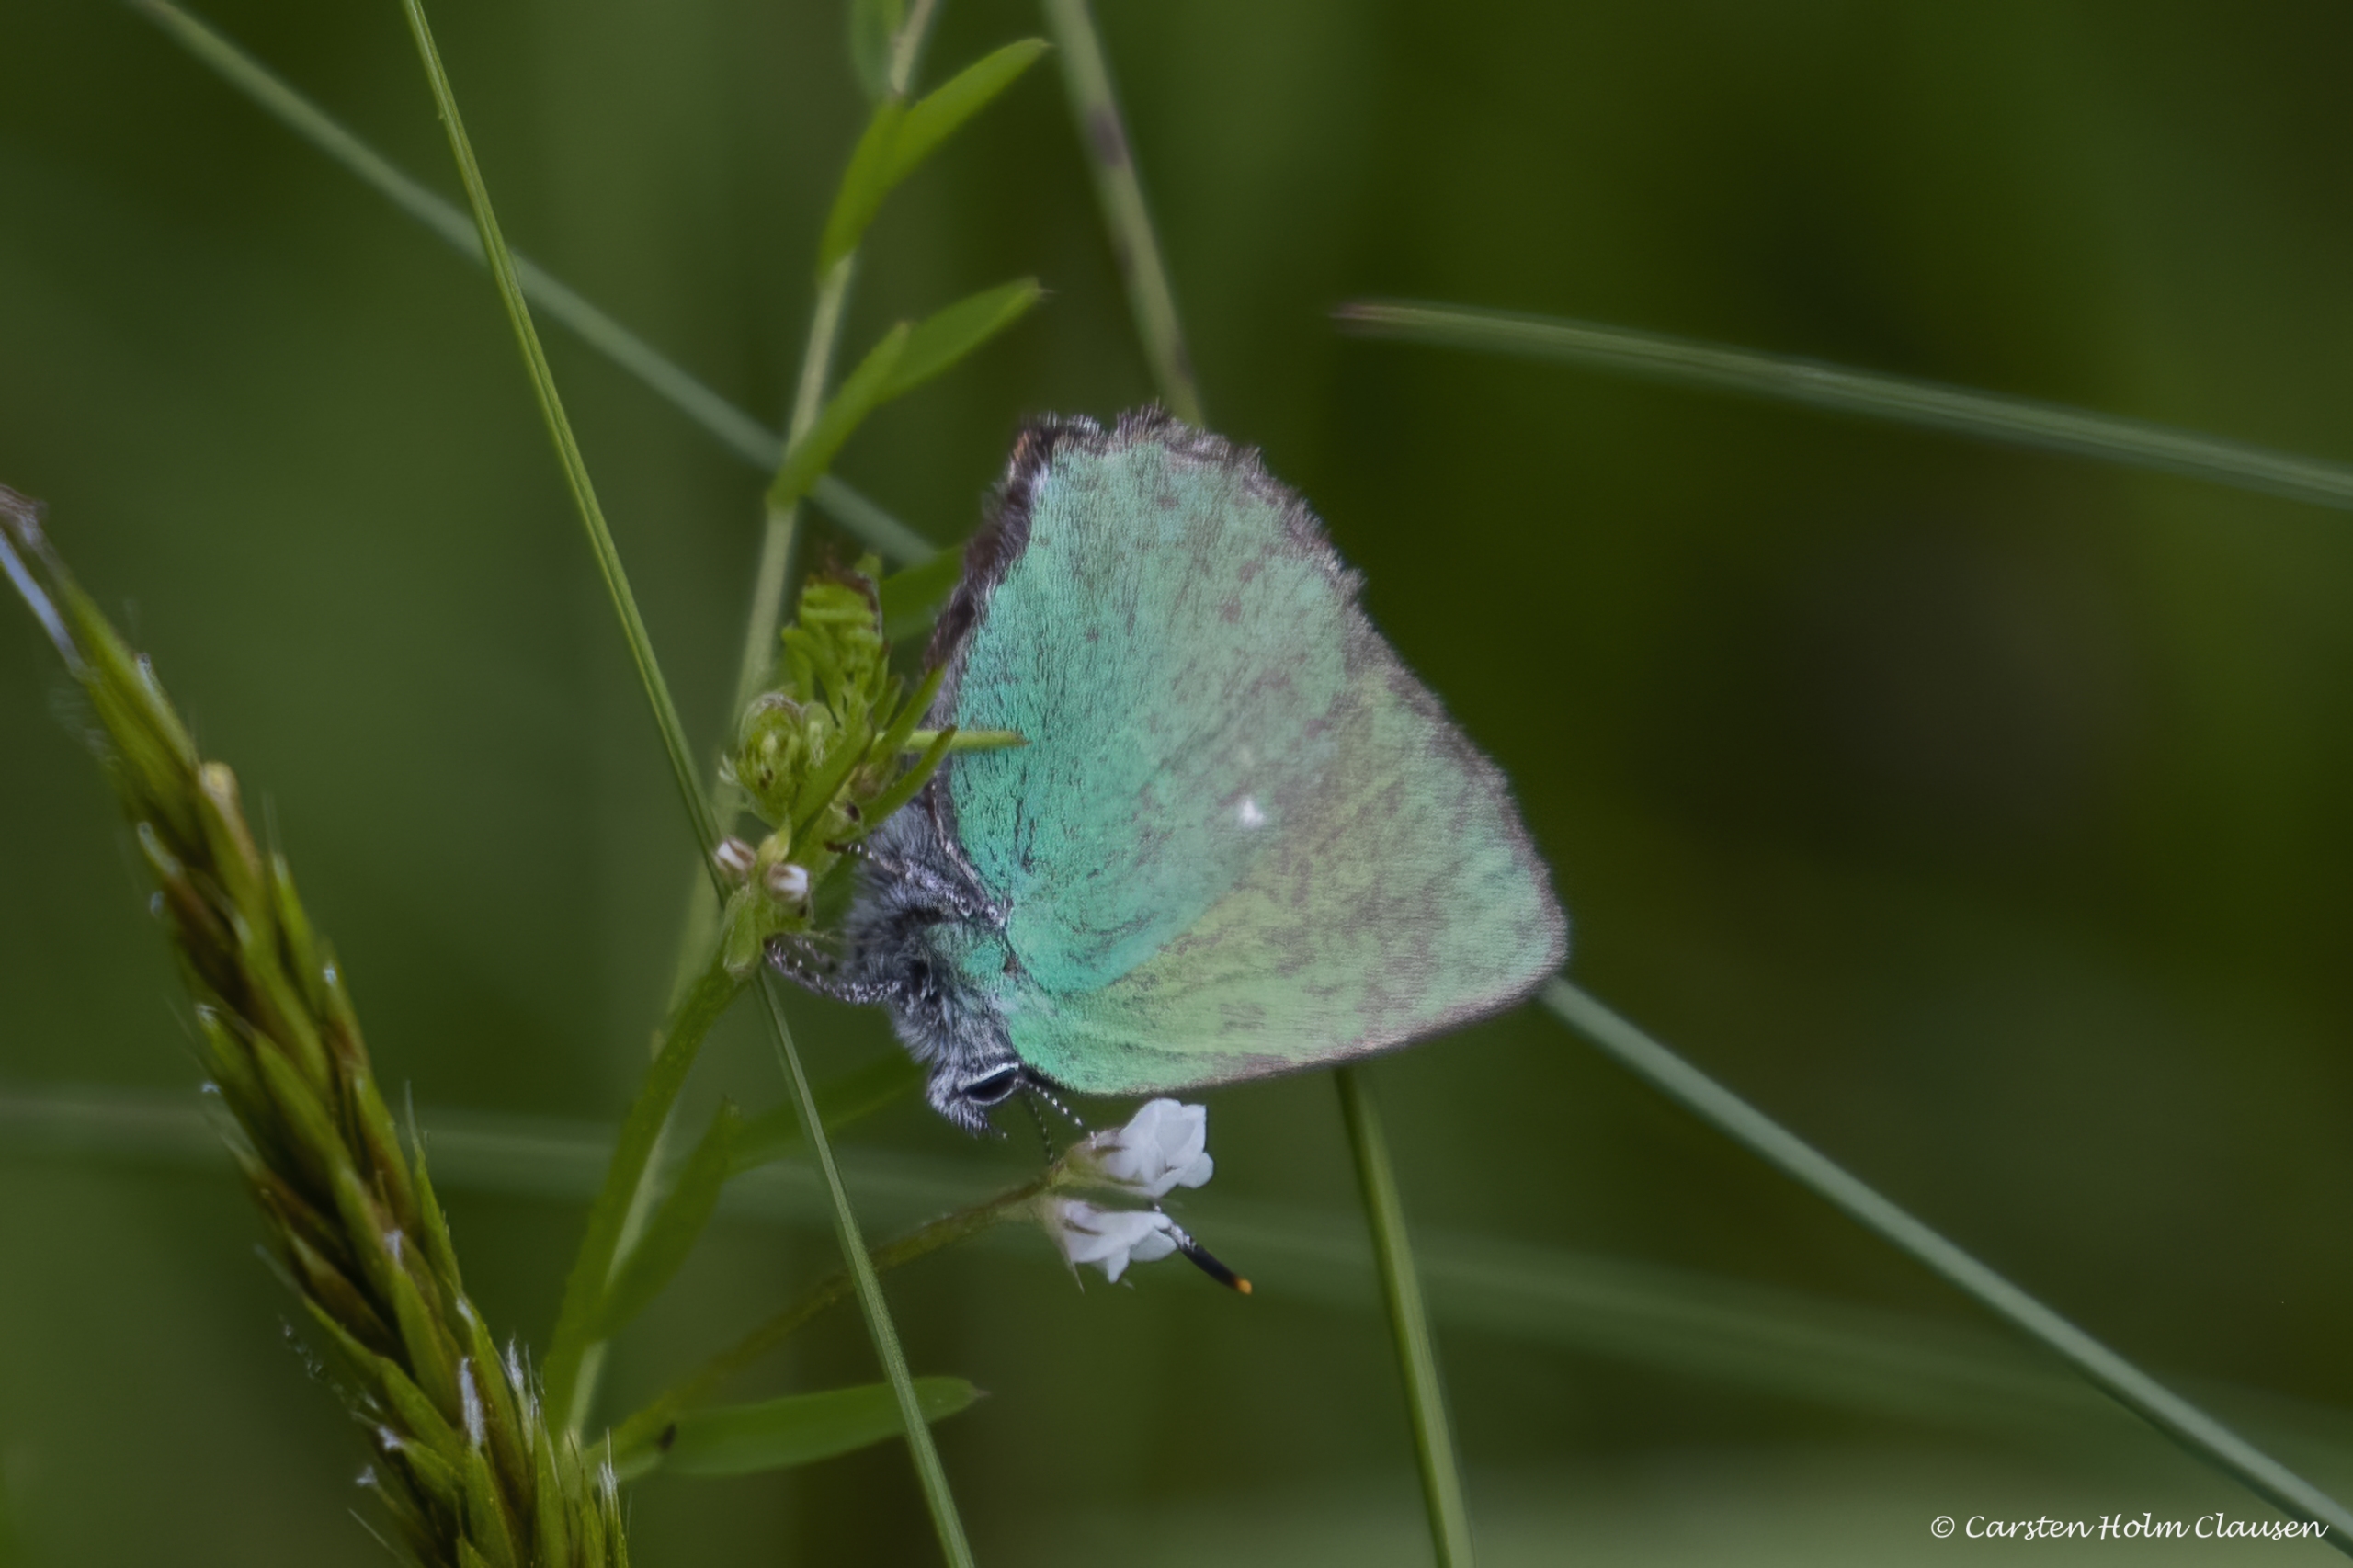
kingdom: Animalia
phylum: Arthropoda
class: Insecta
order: Lepidoptera
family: Lycaenidae
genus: Callophrys
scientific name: Callophrys rubi
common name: Grøn busksommerfugl
